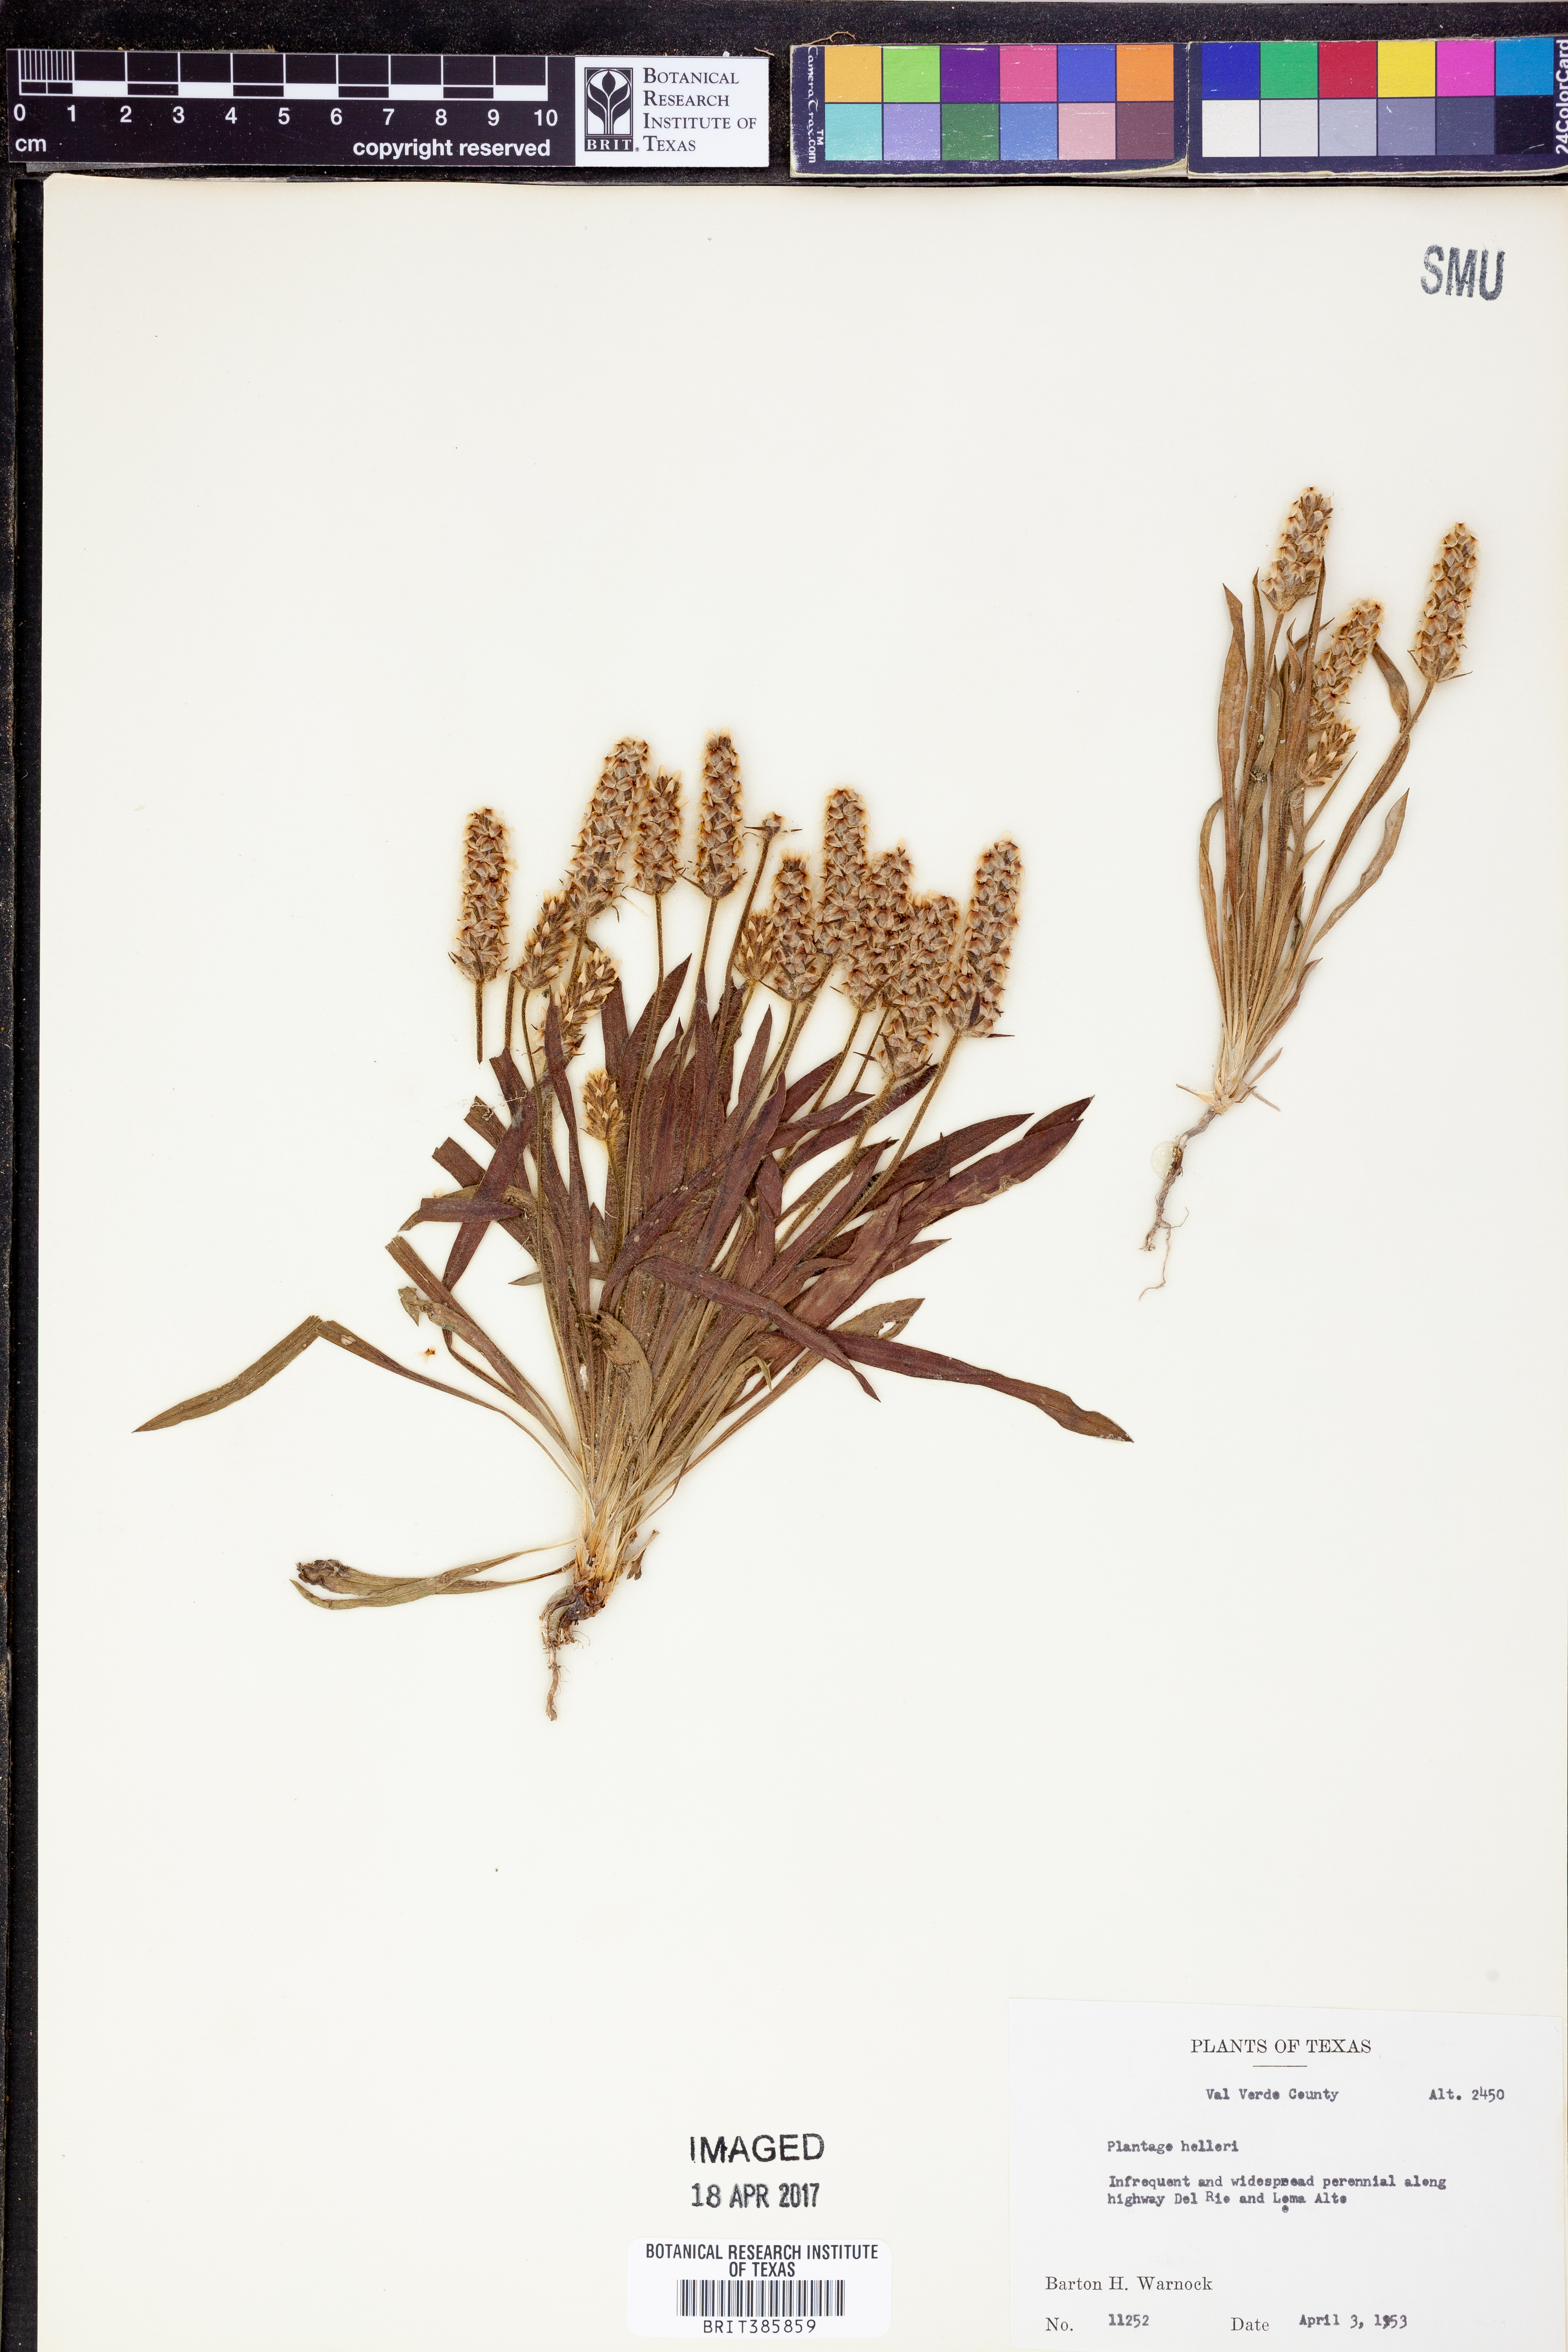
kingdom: Plantae
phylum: Tracheophyta
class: Magnoliopsida
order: Lamiales
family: Plantaginaceae
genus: Plantago
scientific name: Plantago helleri
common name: Heller's plantain
